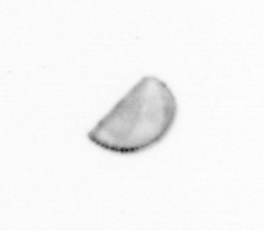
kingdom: Chromista
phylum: Ochrophyta
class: Bacillariophyceae
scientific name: Bacillariophyceae
